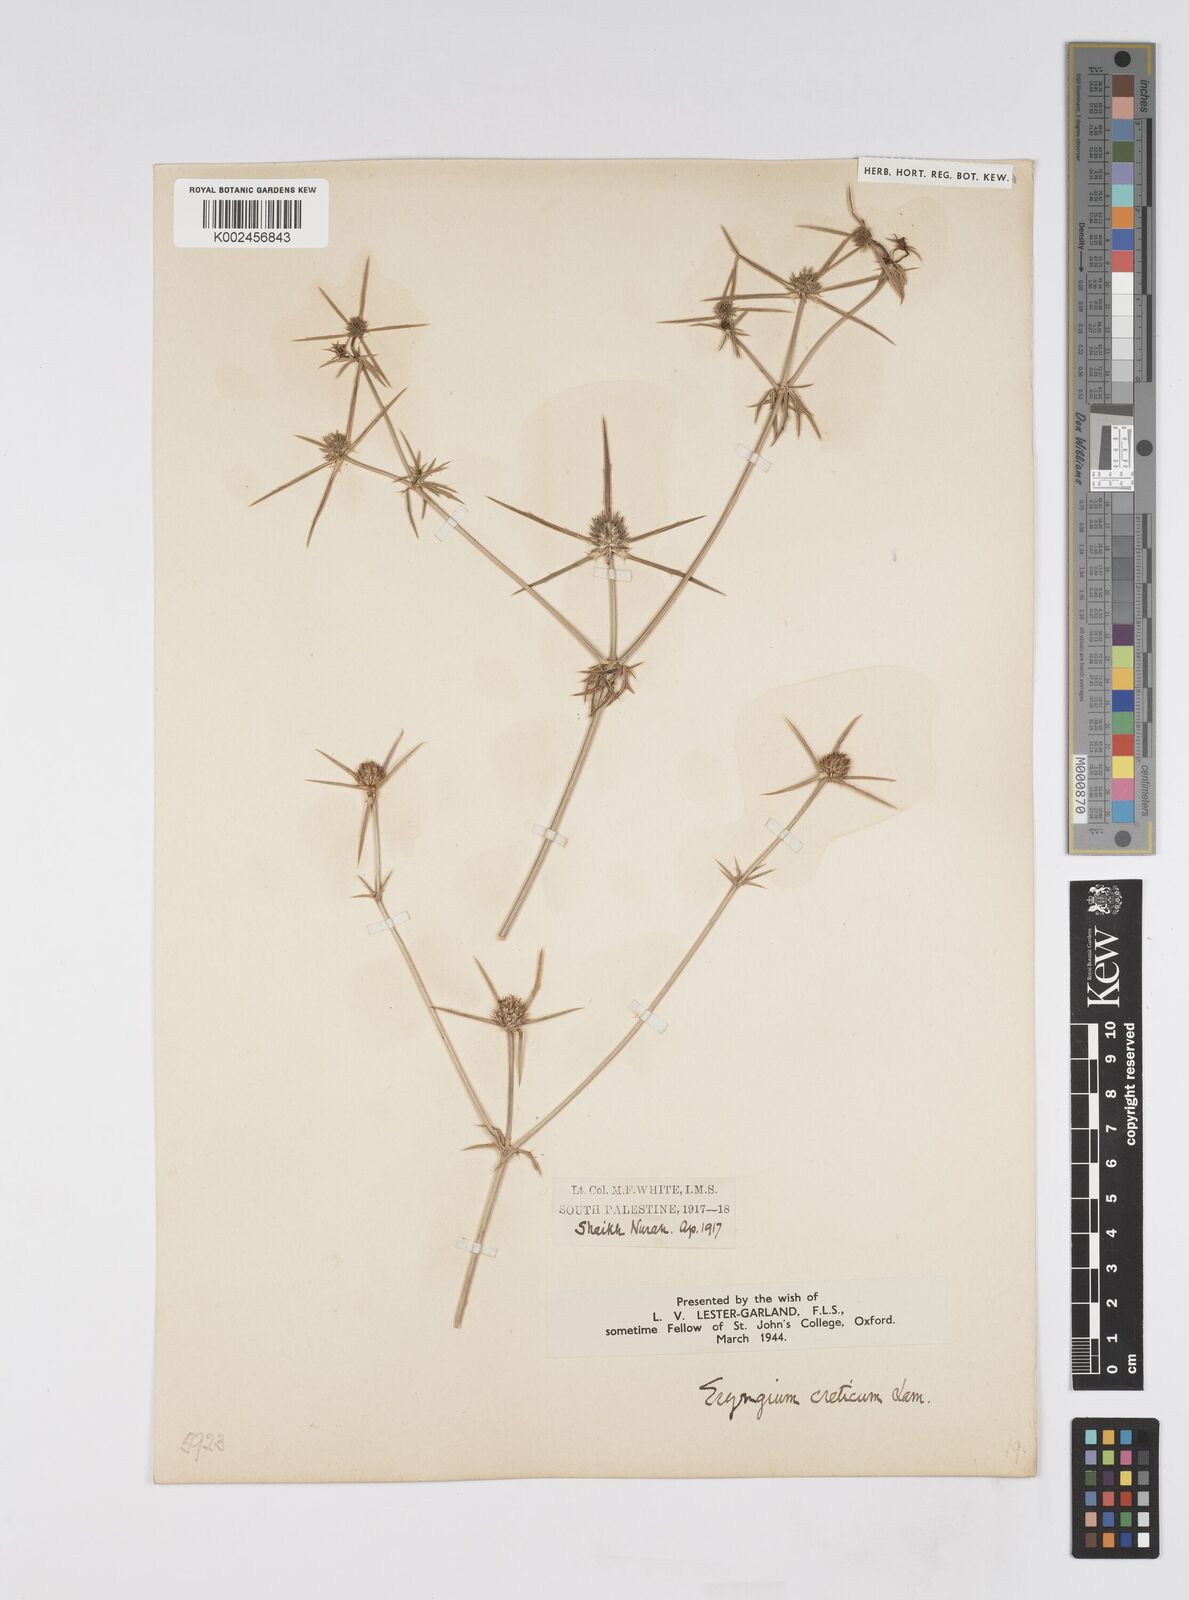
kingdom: Plantae
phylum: Tracheophyta
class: Magnoliopsida
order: Apiales
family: Apiaceae
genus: Eryngium
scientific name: Eryngium creticum
